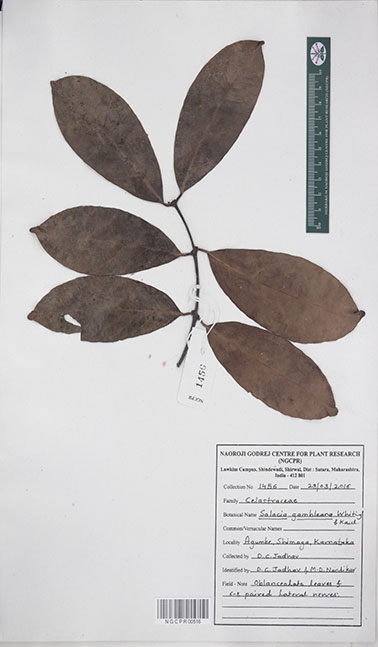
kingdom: Plantae
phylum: Tracheophyta
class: Magnoliopsida
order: Celastrales
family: Celastraceae
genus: Salacia
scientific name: Salacia gambleana
